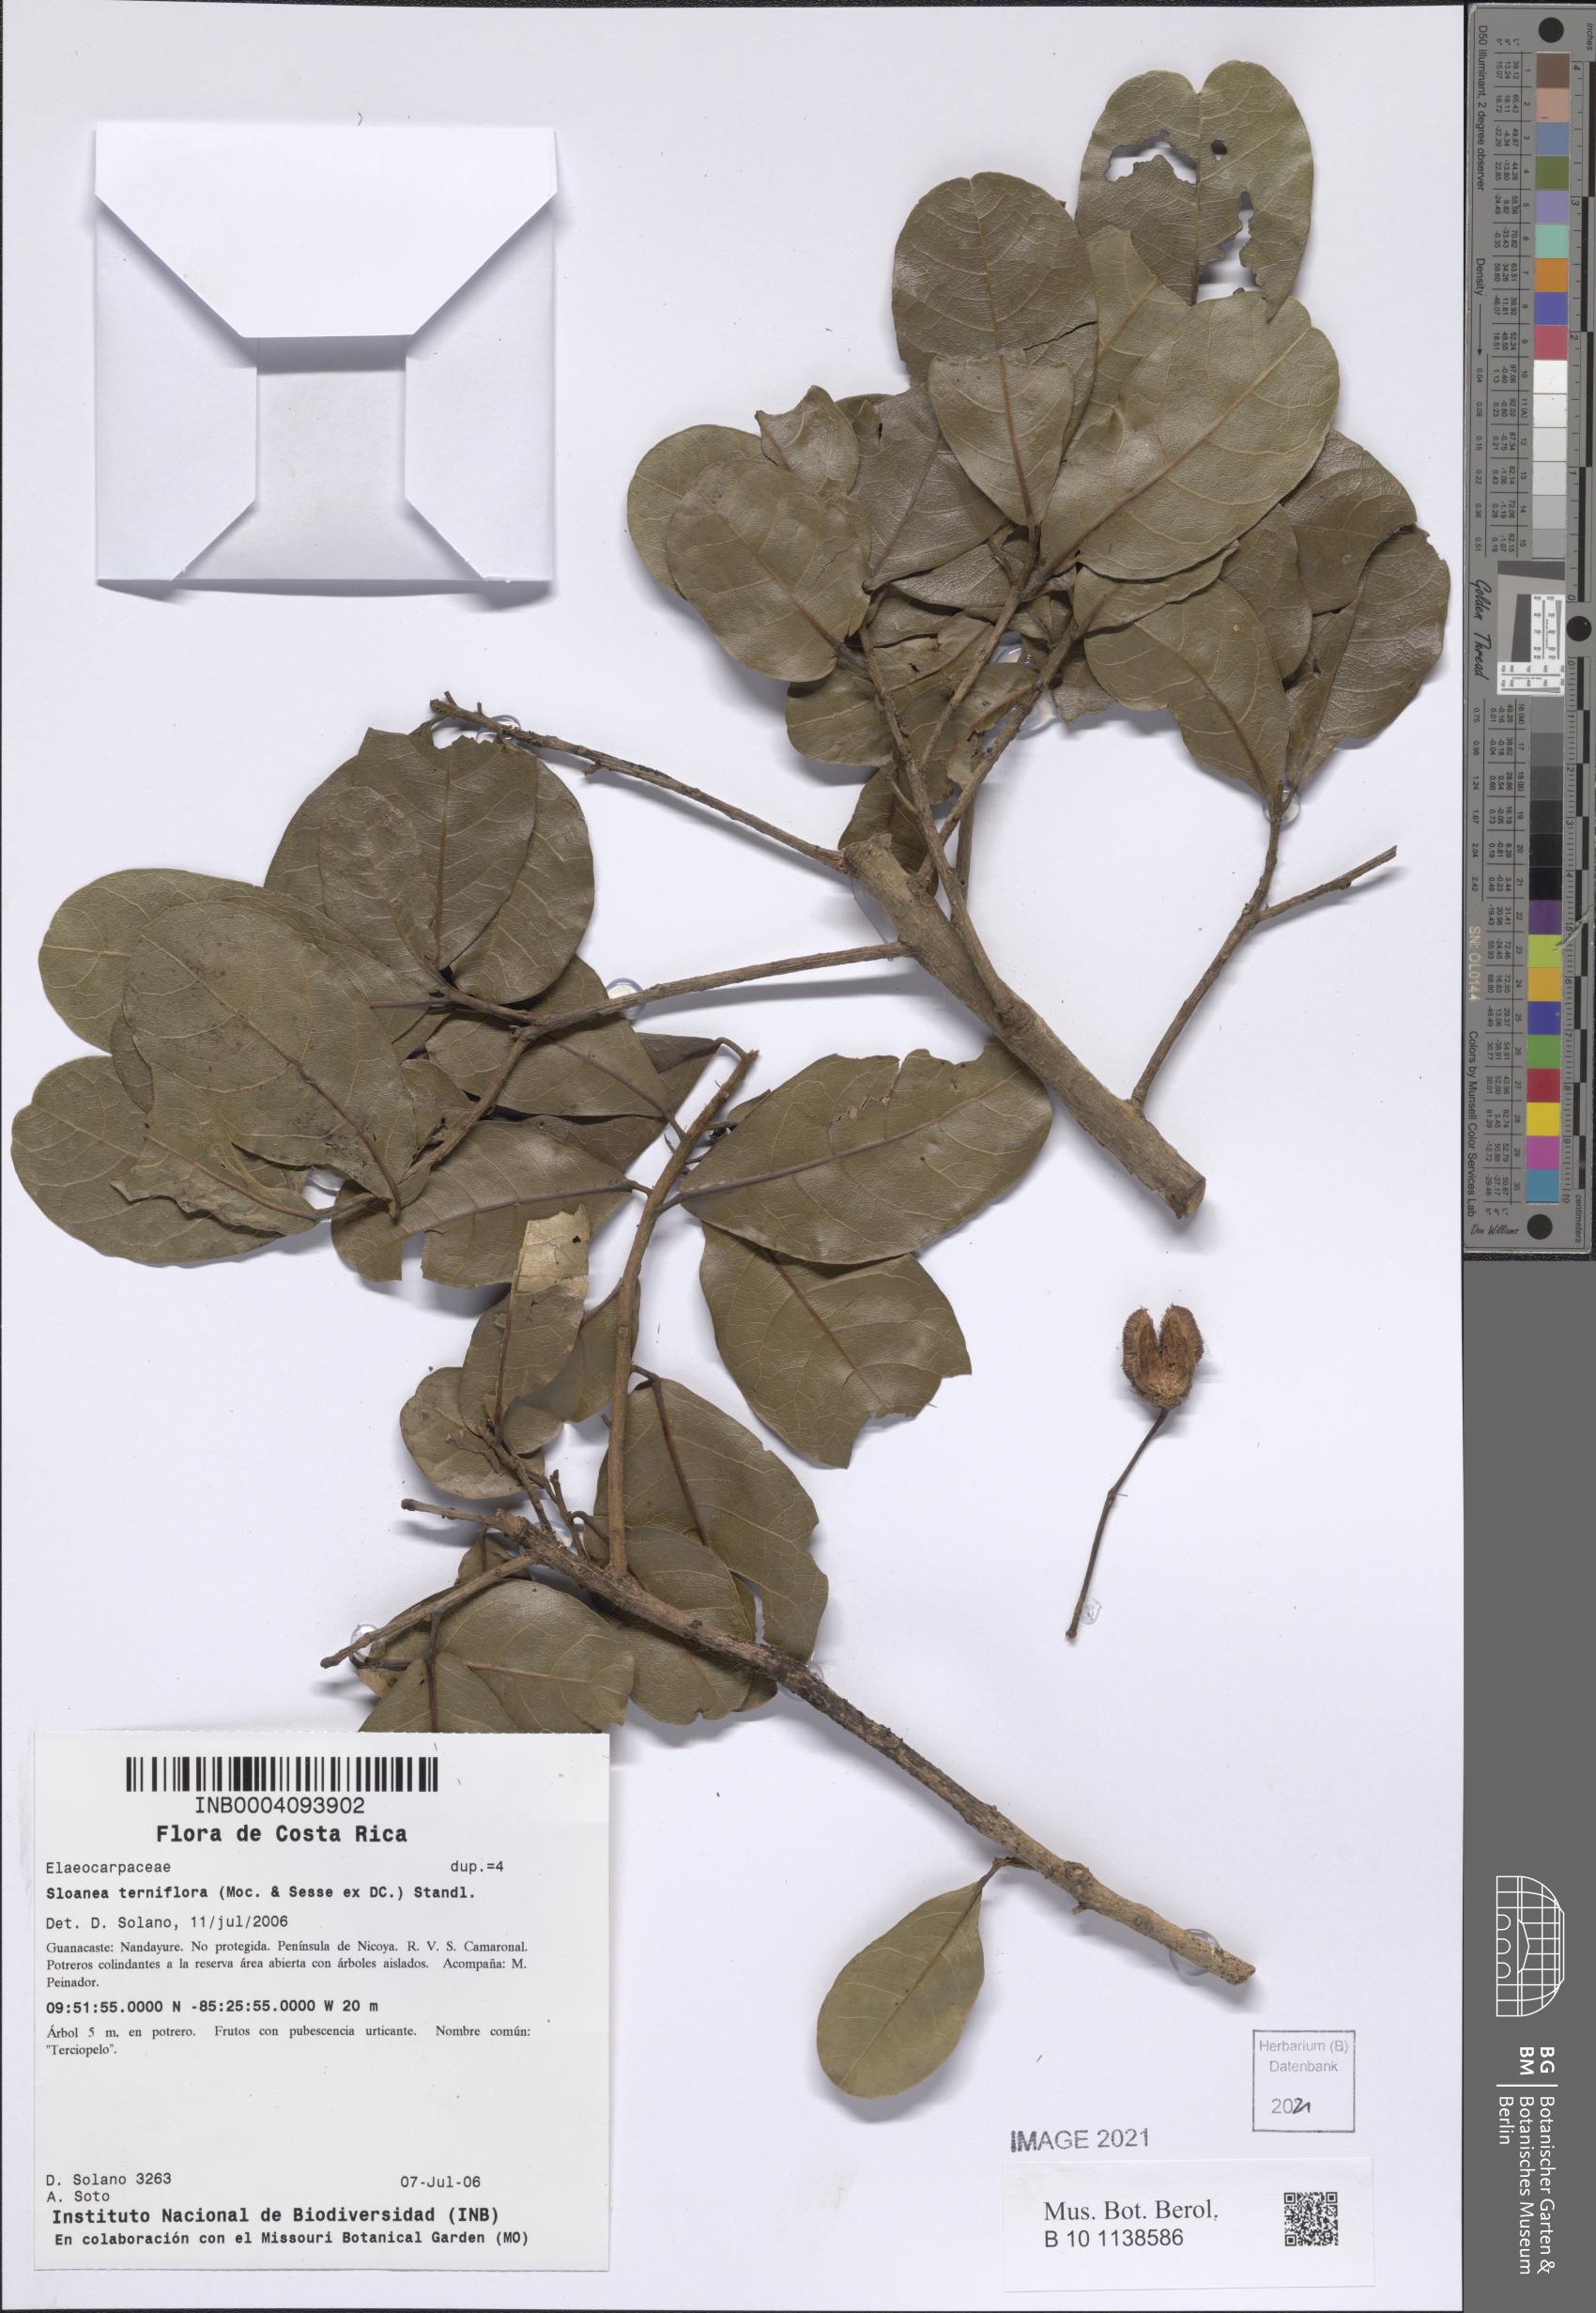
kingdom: Plantae
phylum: Tracheophyta
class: Magnoliopsida
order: Oxalidales
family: Elaeocarpaceae
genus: Sloanea
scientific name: Sloanea terniflora
